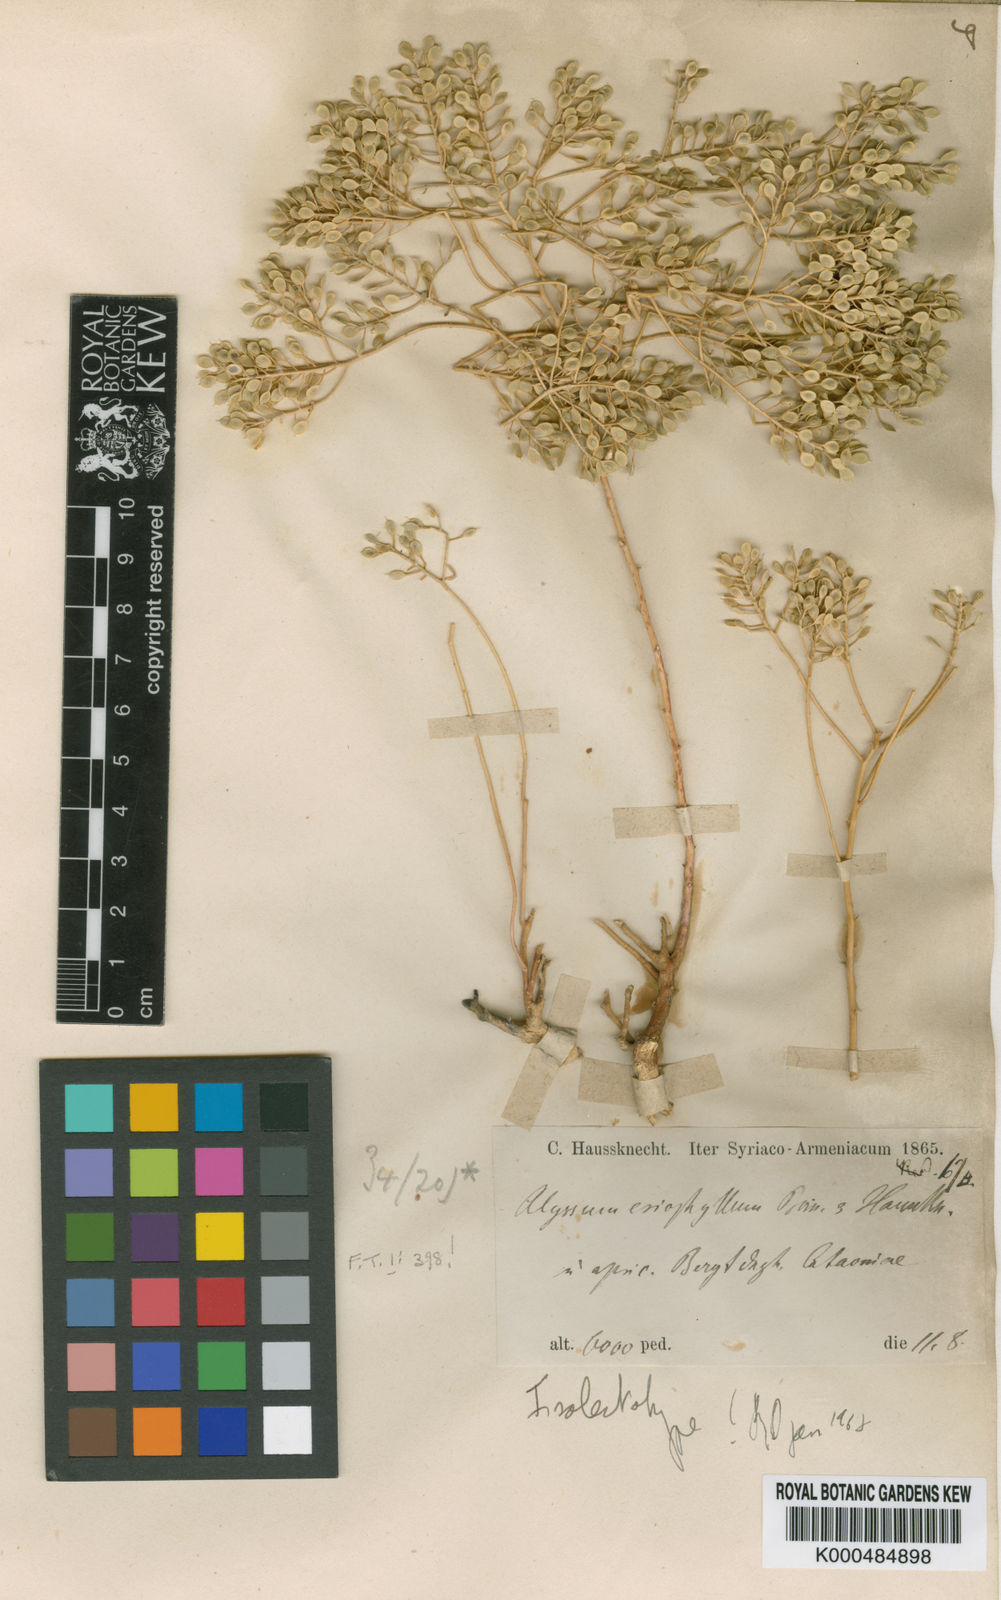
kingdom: Plantae
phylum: Tracheophyta
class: Magnoliopsida
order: Brassicales
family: Brassicaceae
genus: Odontarrhena
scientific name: Odontarrhena
